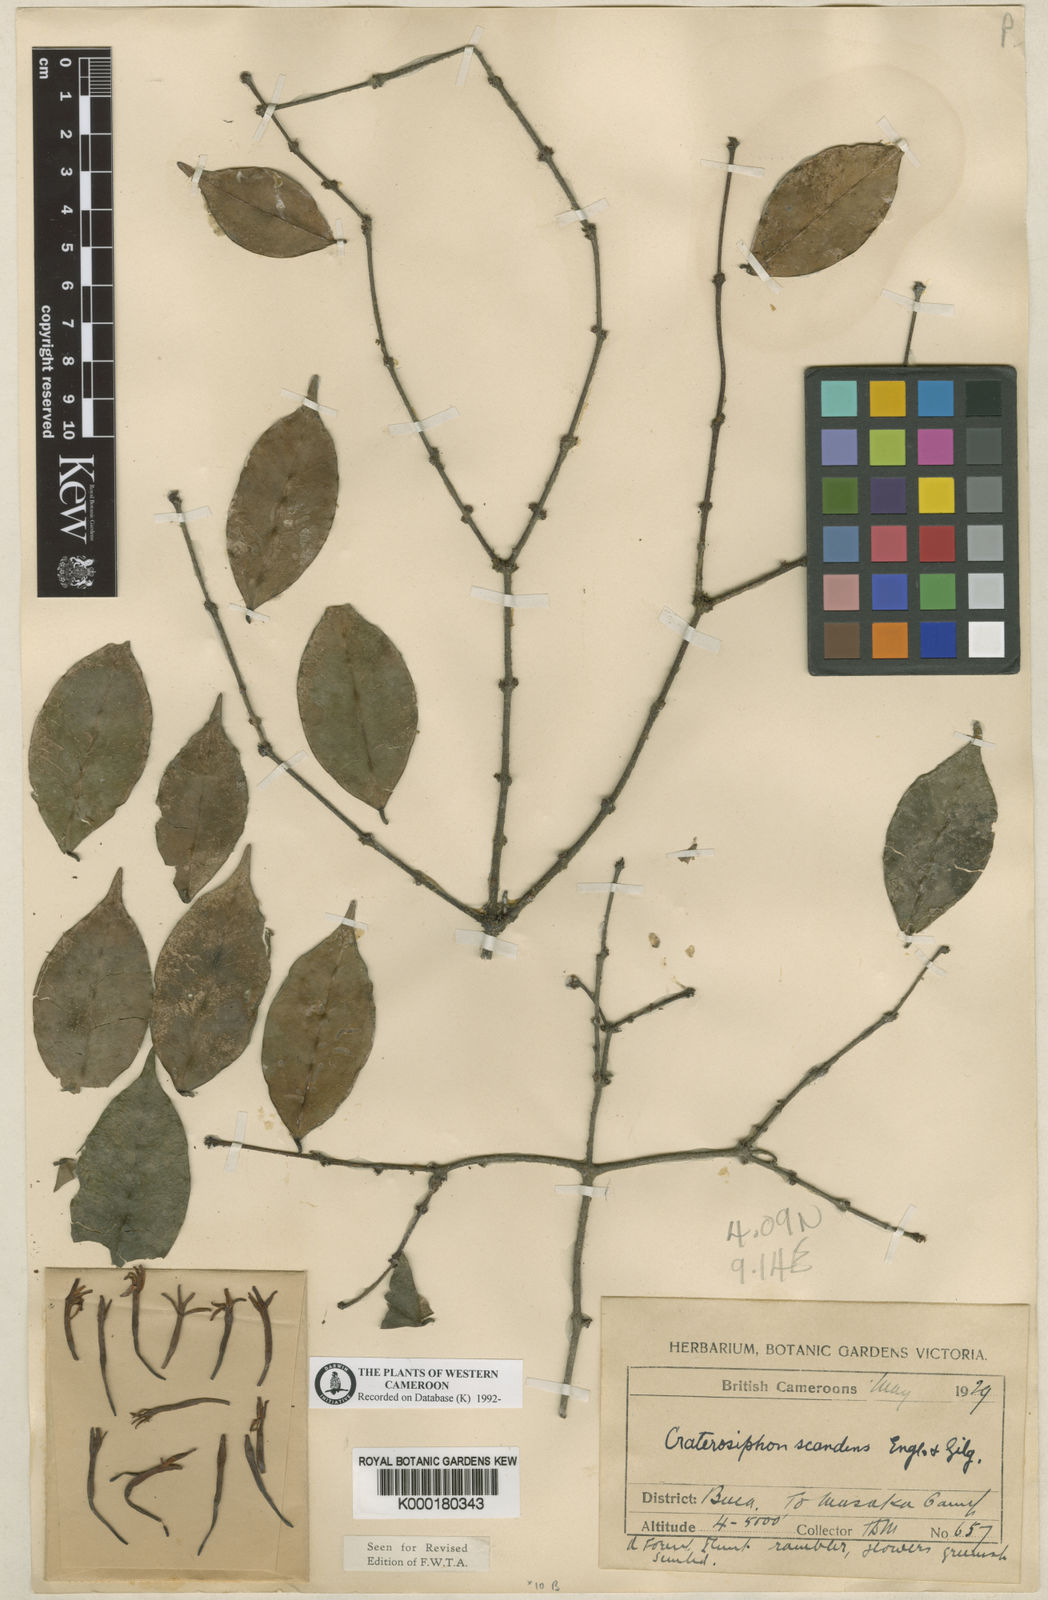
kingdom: Plantae
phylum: Tracheophyta
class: Magnoliopsida
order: Malvales
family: Thymelaeaceae
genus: Craterosiphon
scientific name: Craterosiphon scandens
